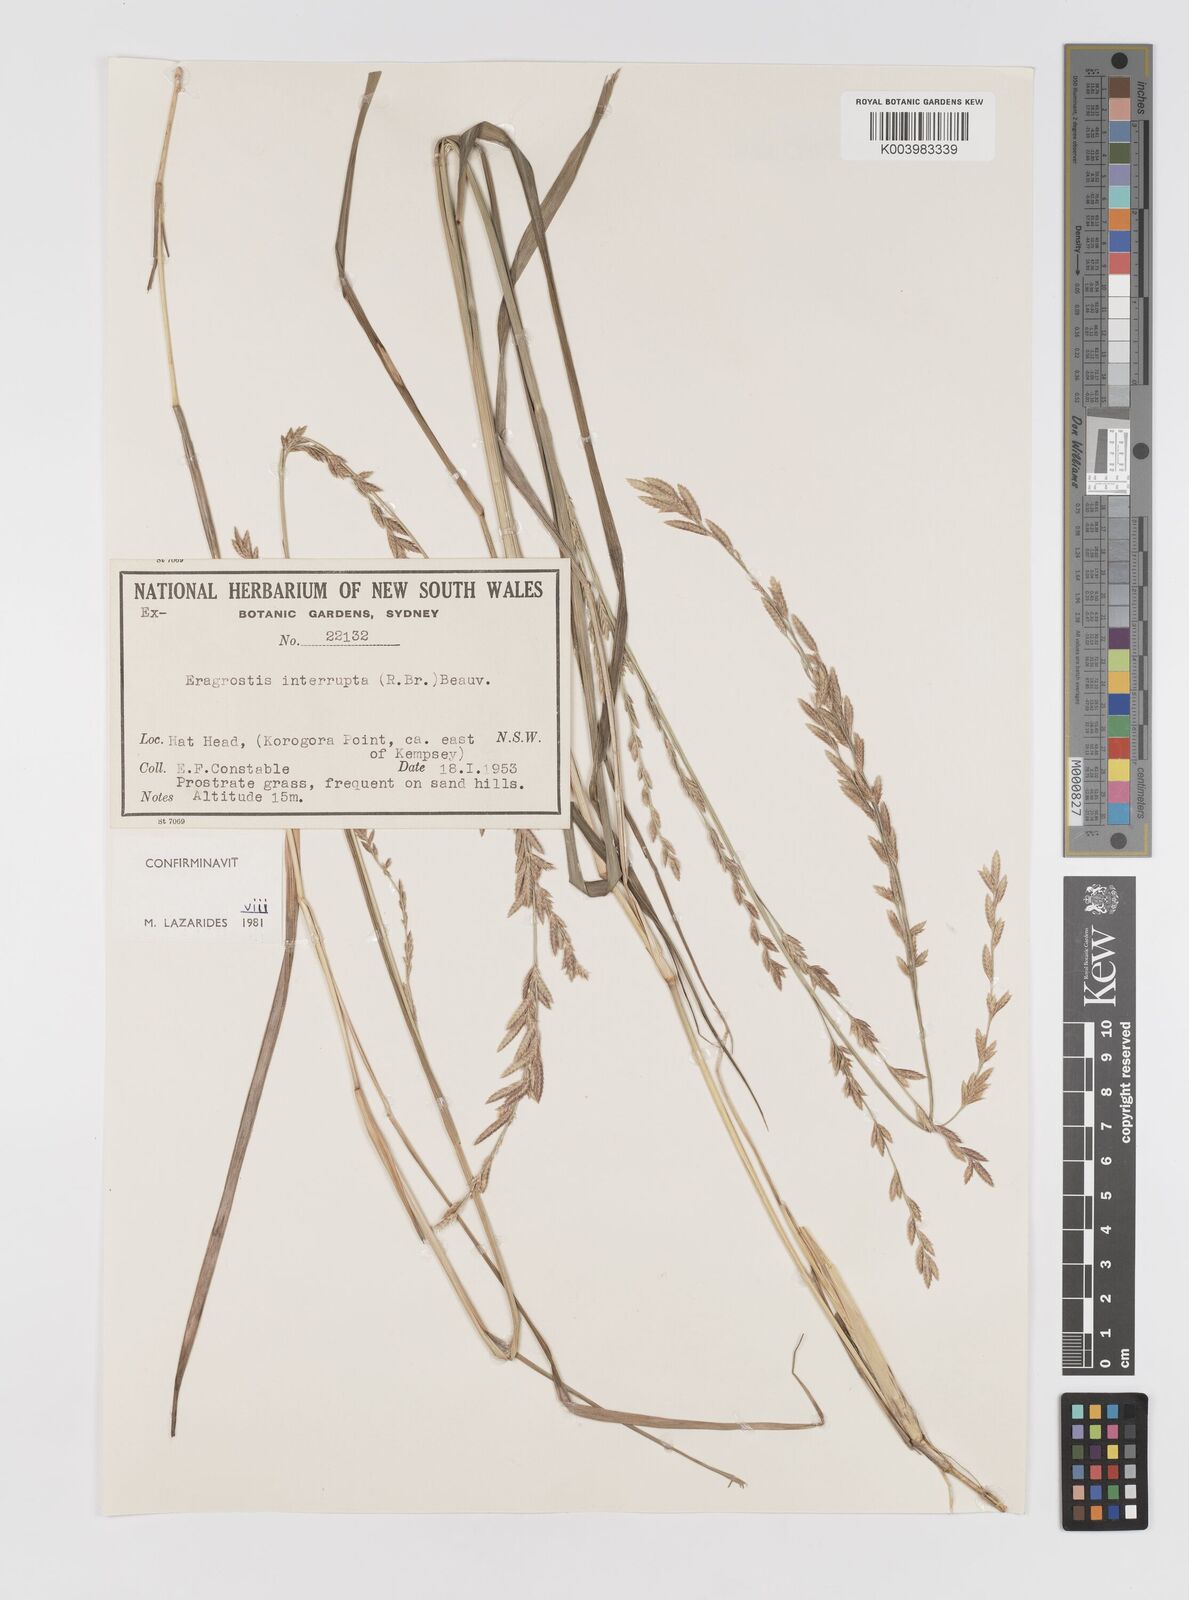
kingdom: Plantae
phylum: Tracheophyta
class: Liliopsida
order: Poales
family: Poaceae
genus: Eragrostis
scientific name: Eragrostis interrupta
